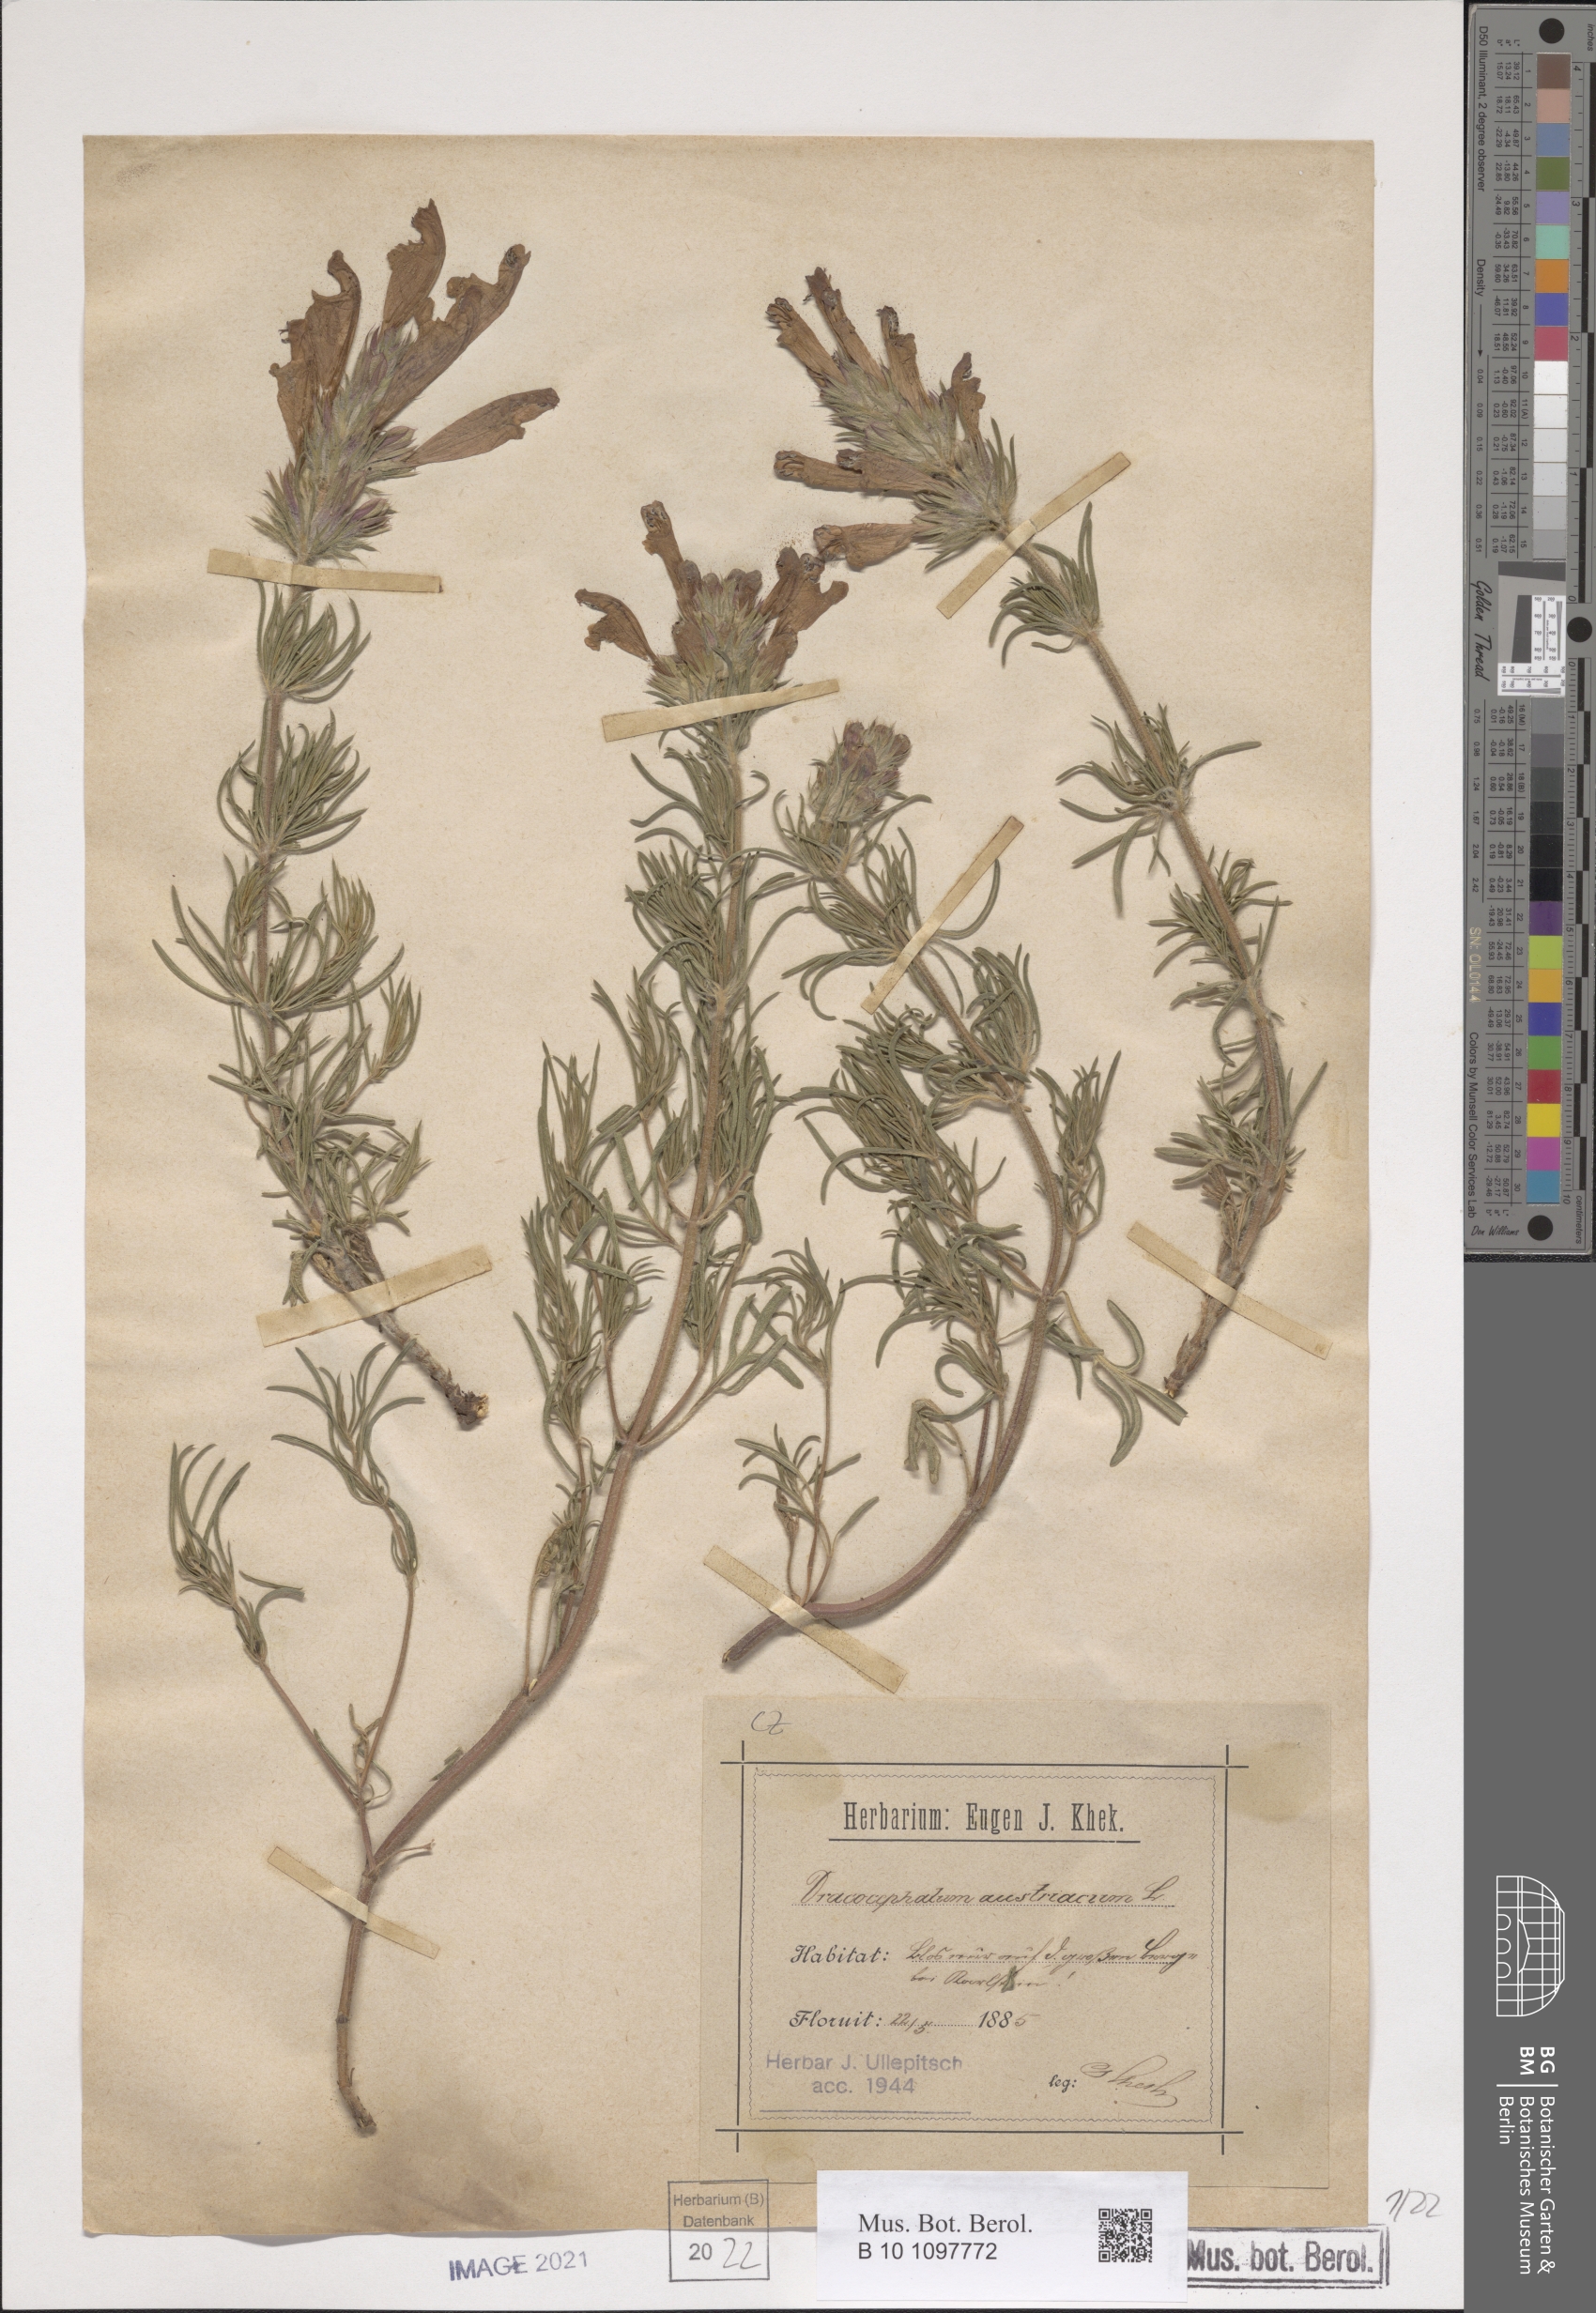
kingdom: Plantae
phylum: Tracheophyta
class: Magnoliopsida
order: Lamiales
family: Lamiaceae
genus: Dracocephalum
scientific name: Dracocephalum austriacum
